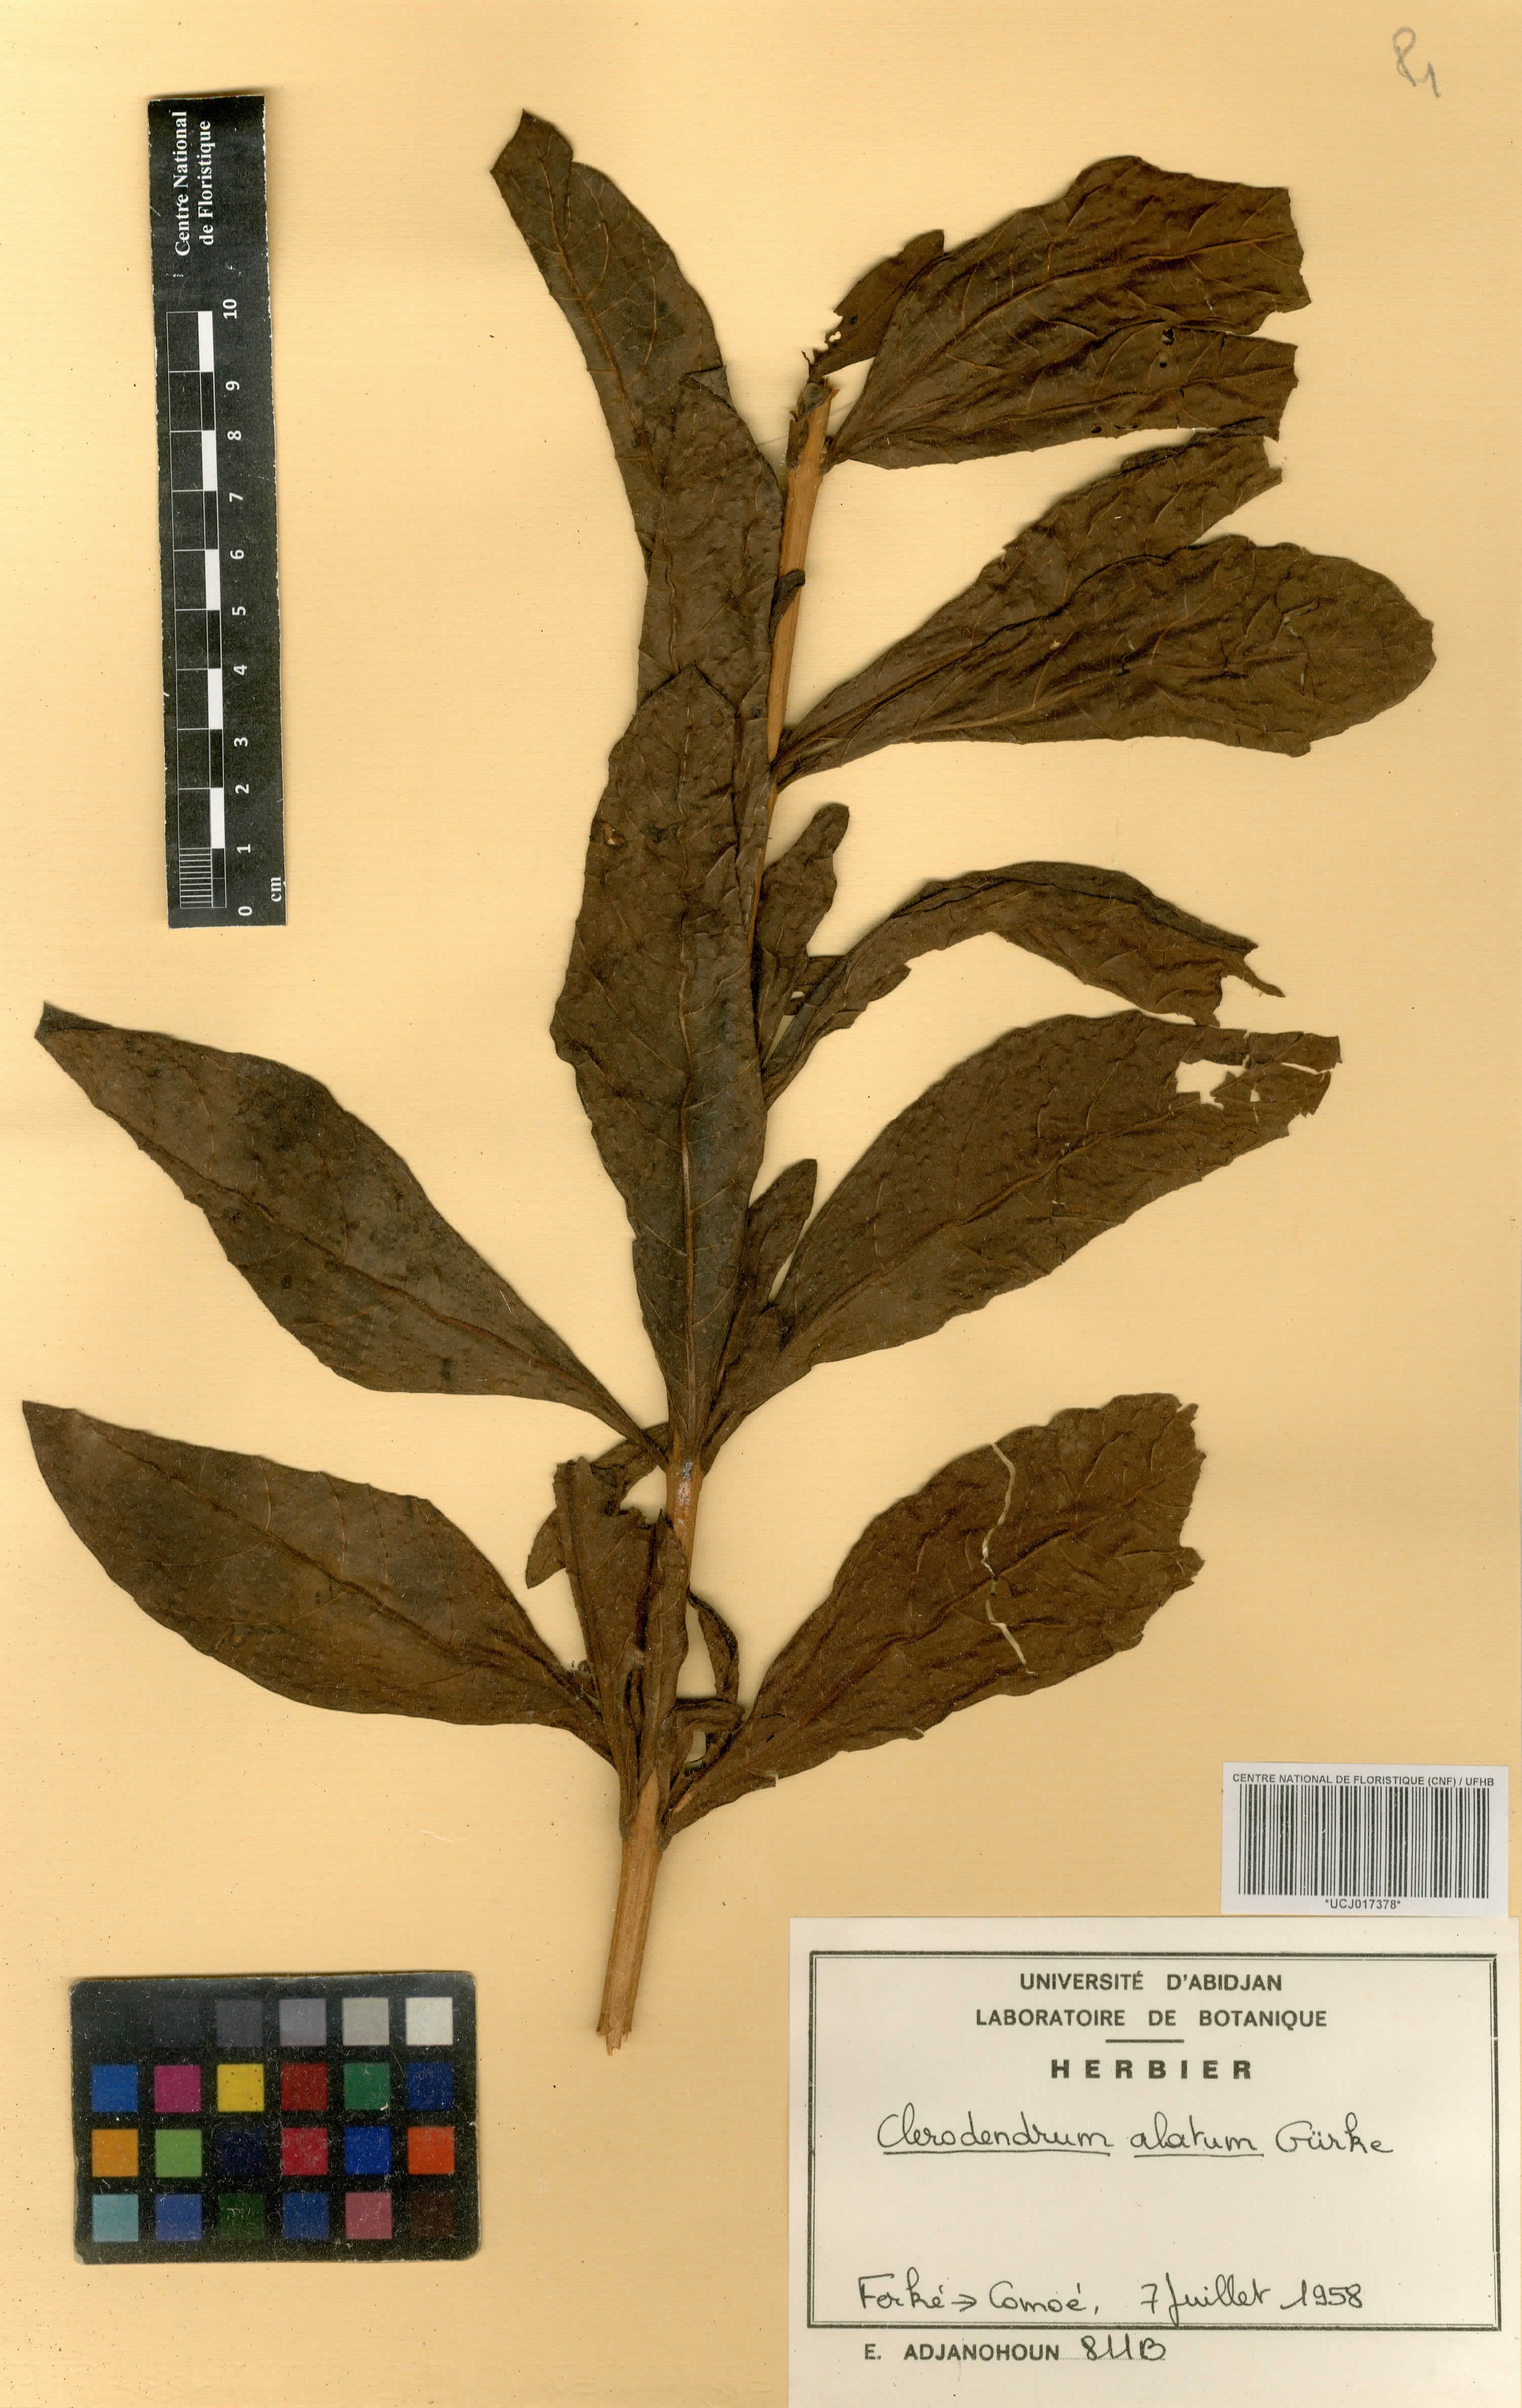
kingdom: Plantae
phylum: Tracheophyta
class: Magnoliopsida
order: Lamiales
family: Lamiaceae
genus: Rotheca
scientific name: Rotheca alata
